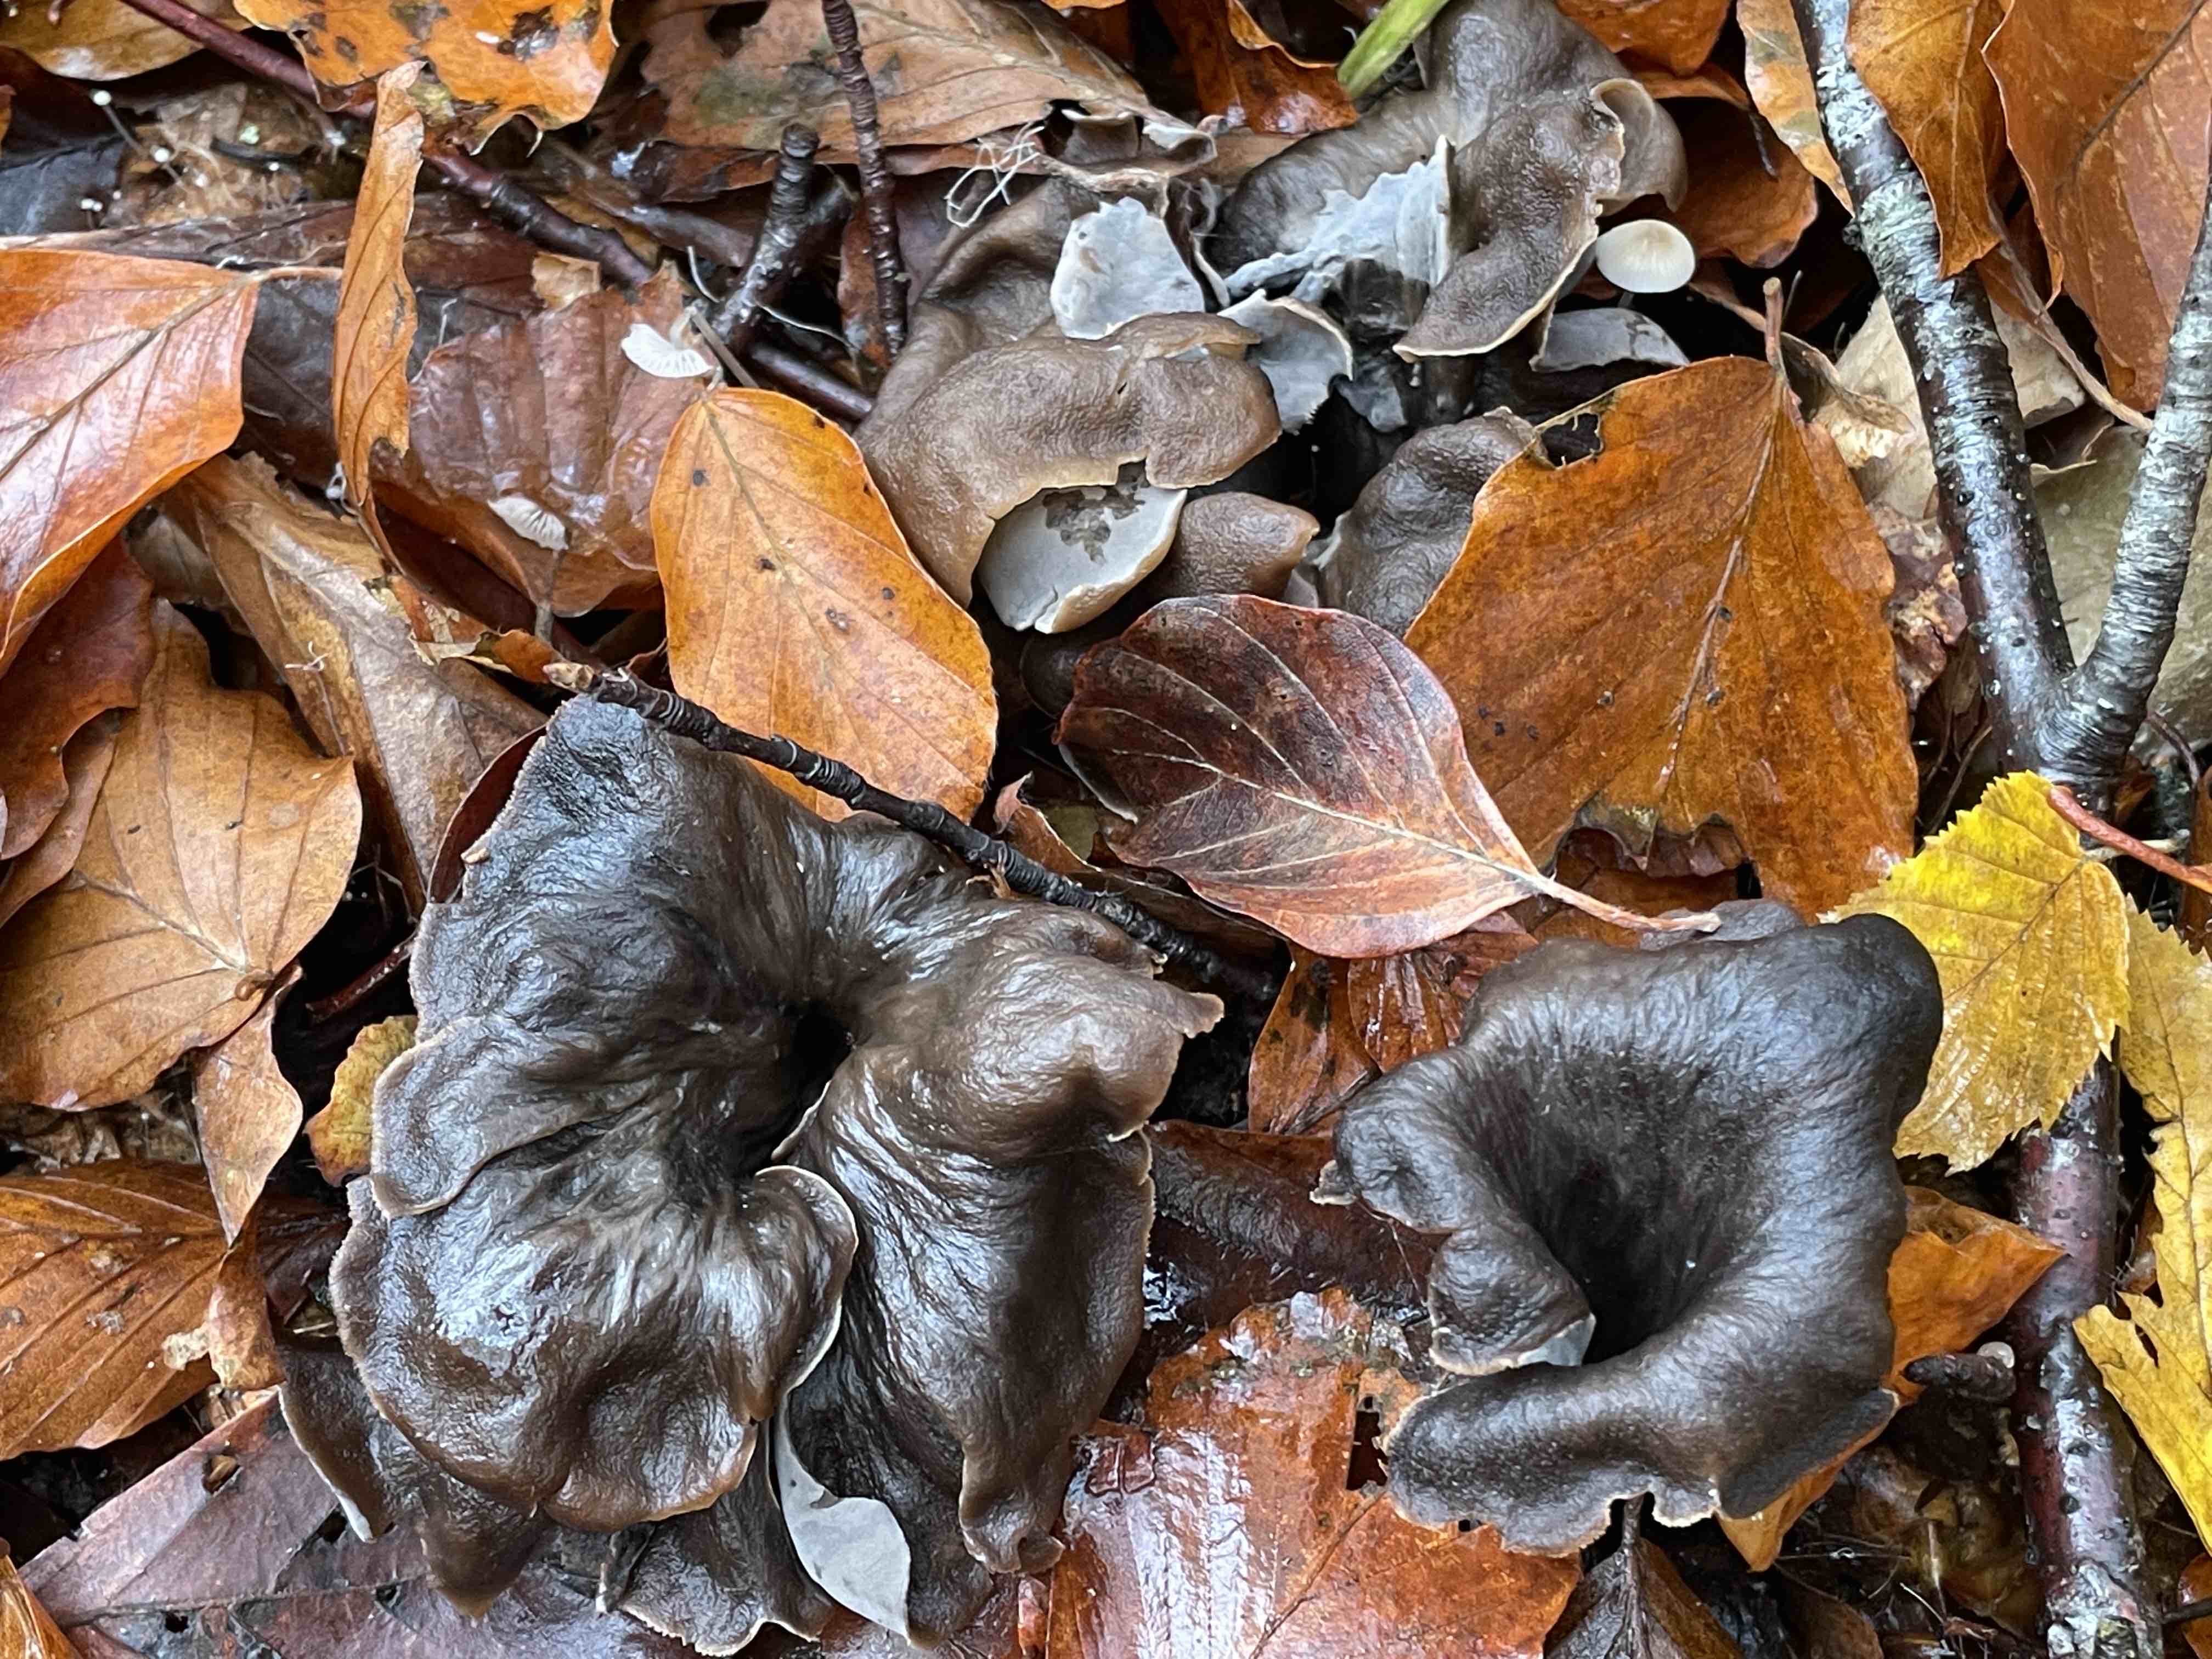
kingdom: Fungi
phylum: Basidiomycota
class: Agaricomycetes
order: Cantharellales
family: Hydnaceae
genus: Craterellus
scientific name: Craterellus cornucopioides
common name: trompetsvamp
